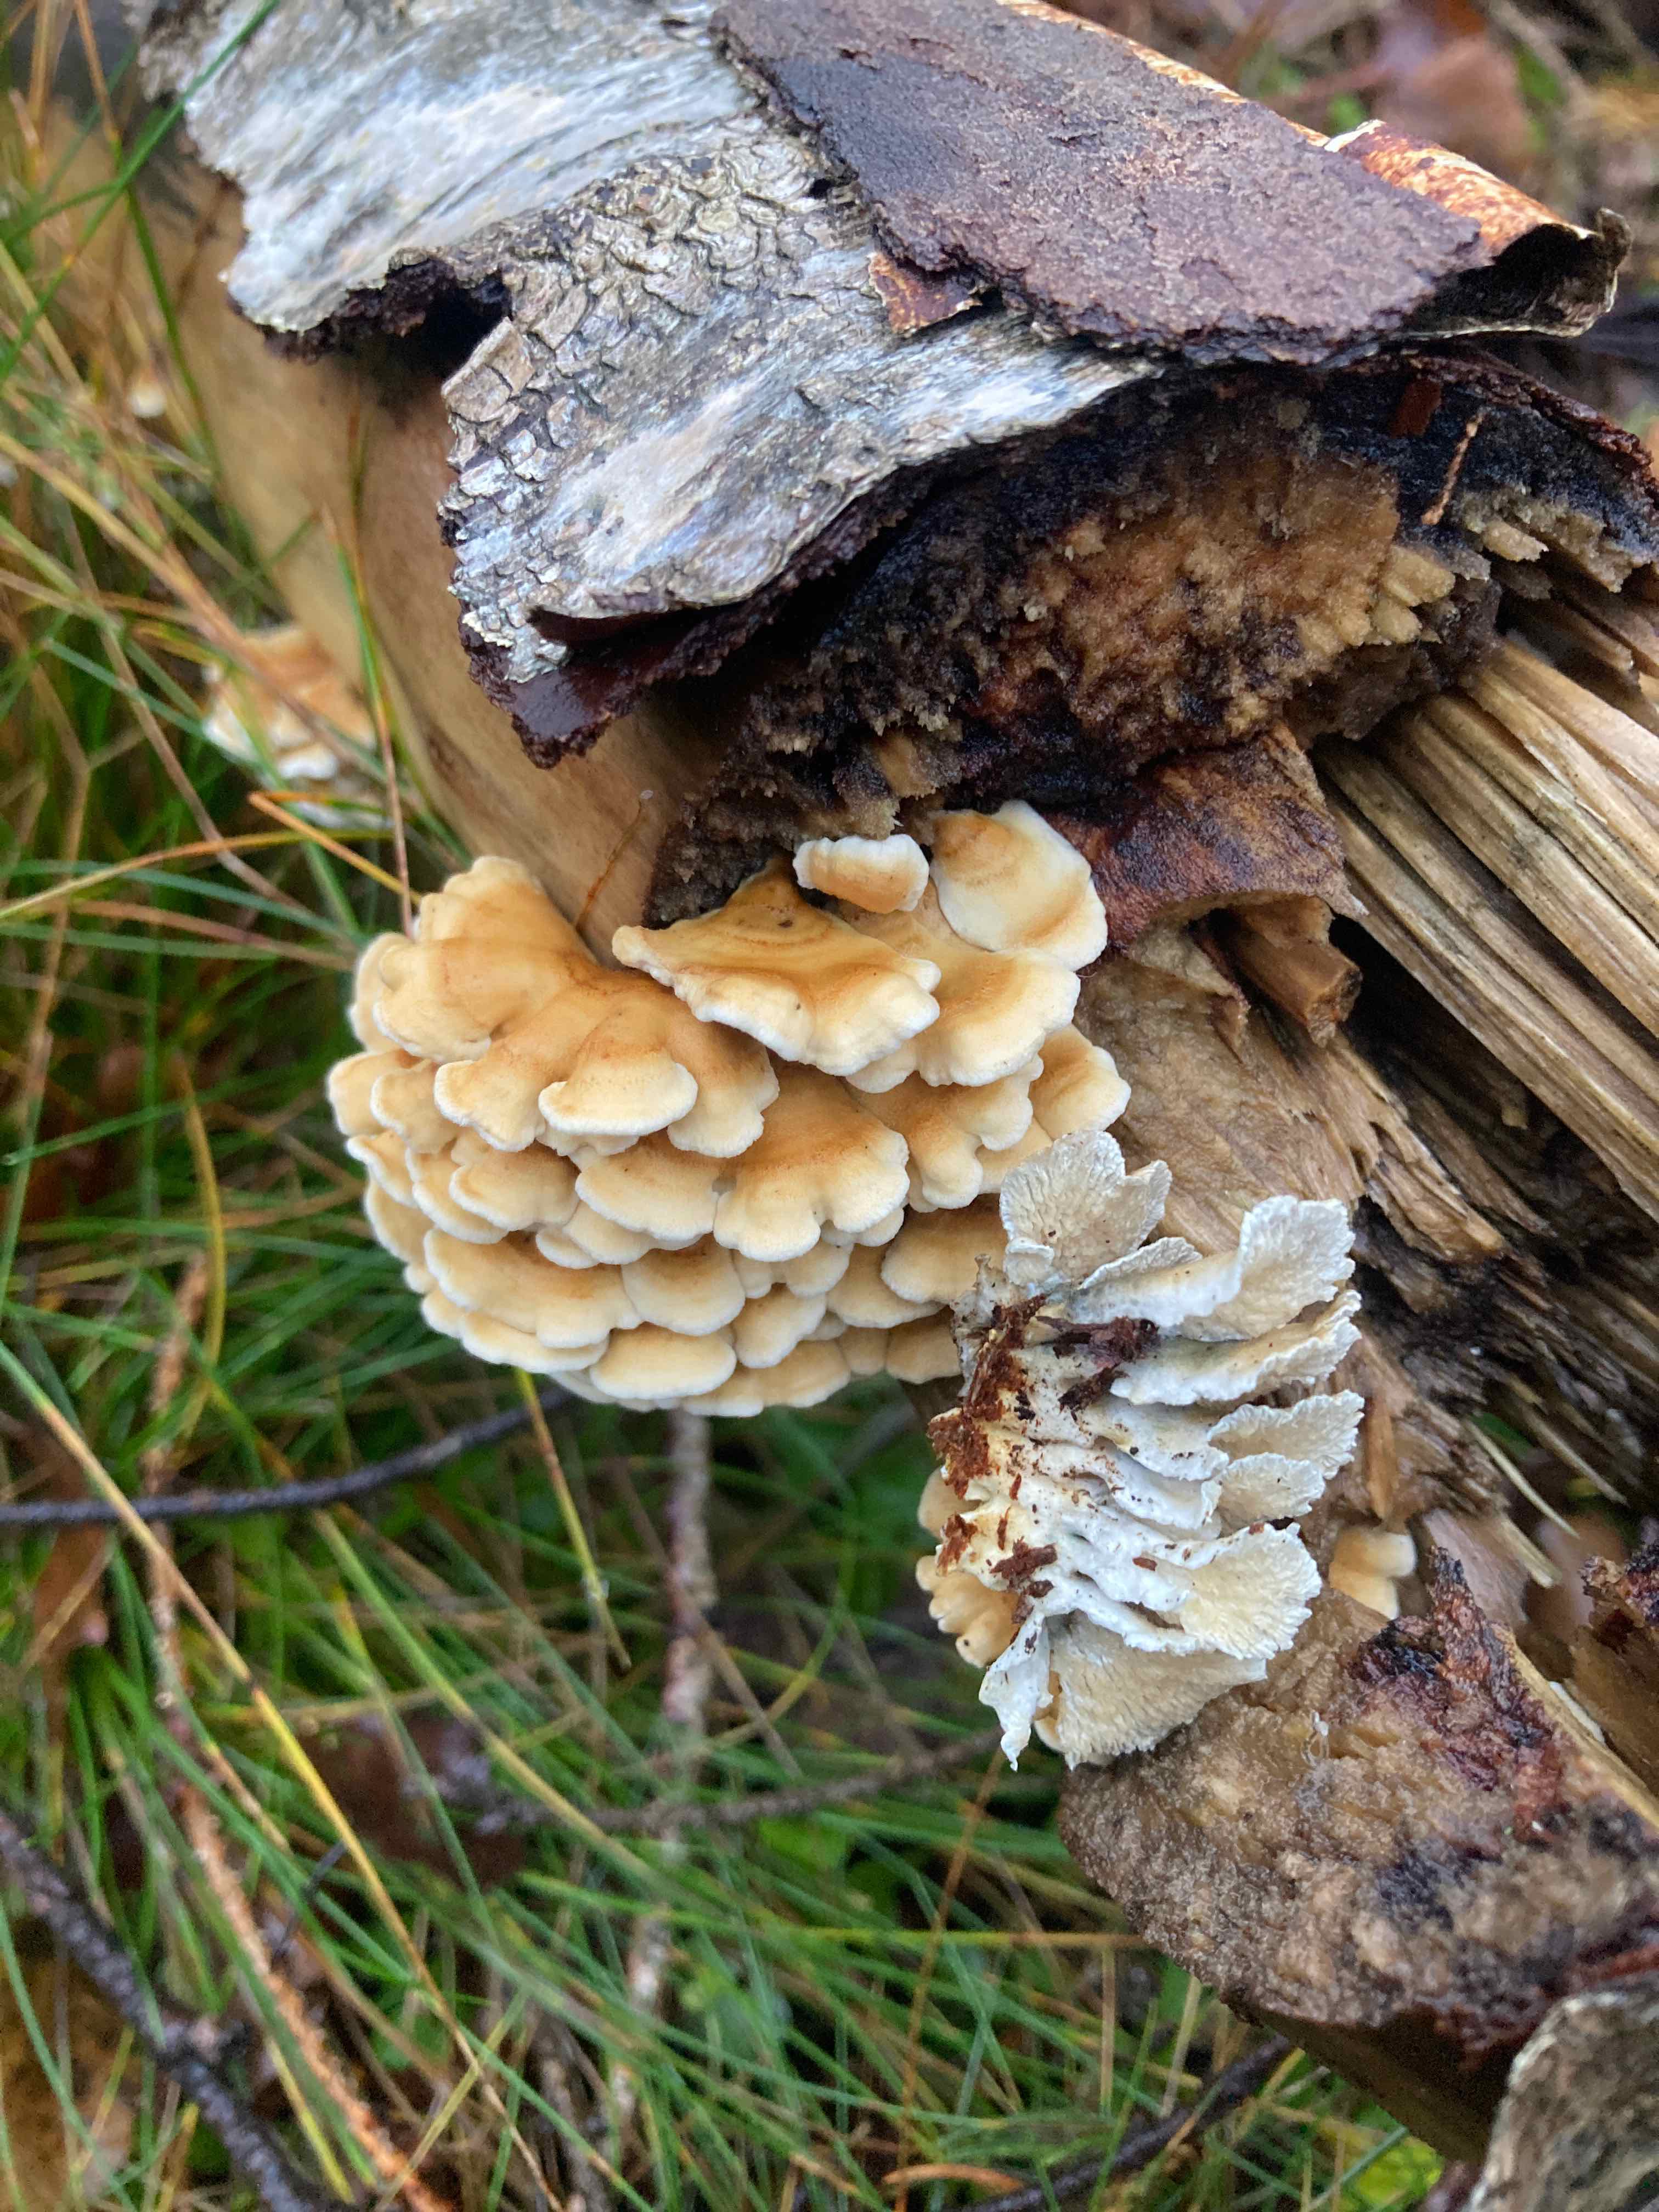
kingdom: Fungi
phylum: Basidiomycota
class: Agaricomycetes
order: Amylocorticiales
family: Amylocorticiaceae
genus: Plicaturopsis
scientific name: Plicaturopsis crispa
